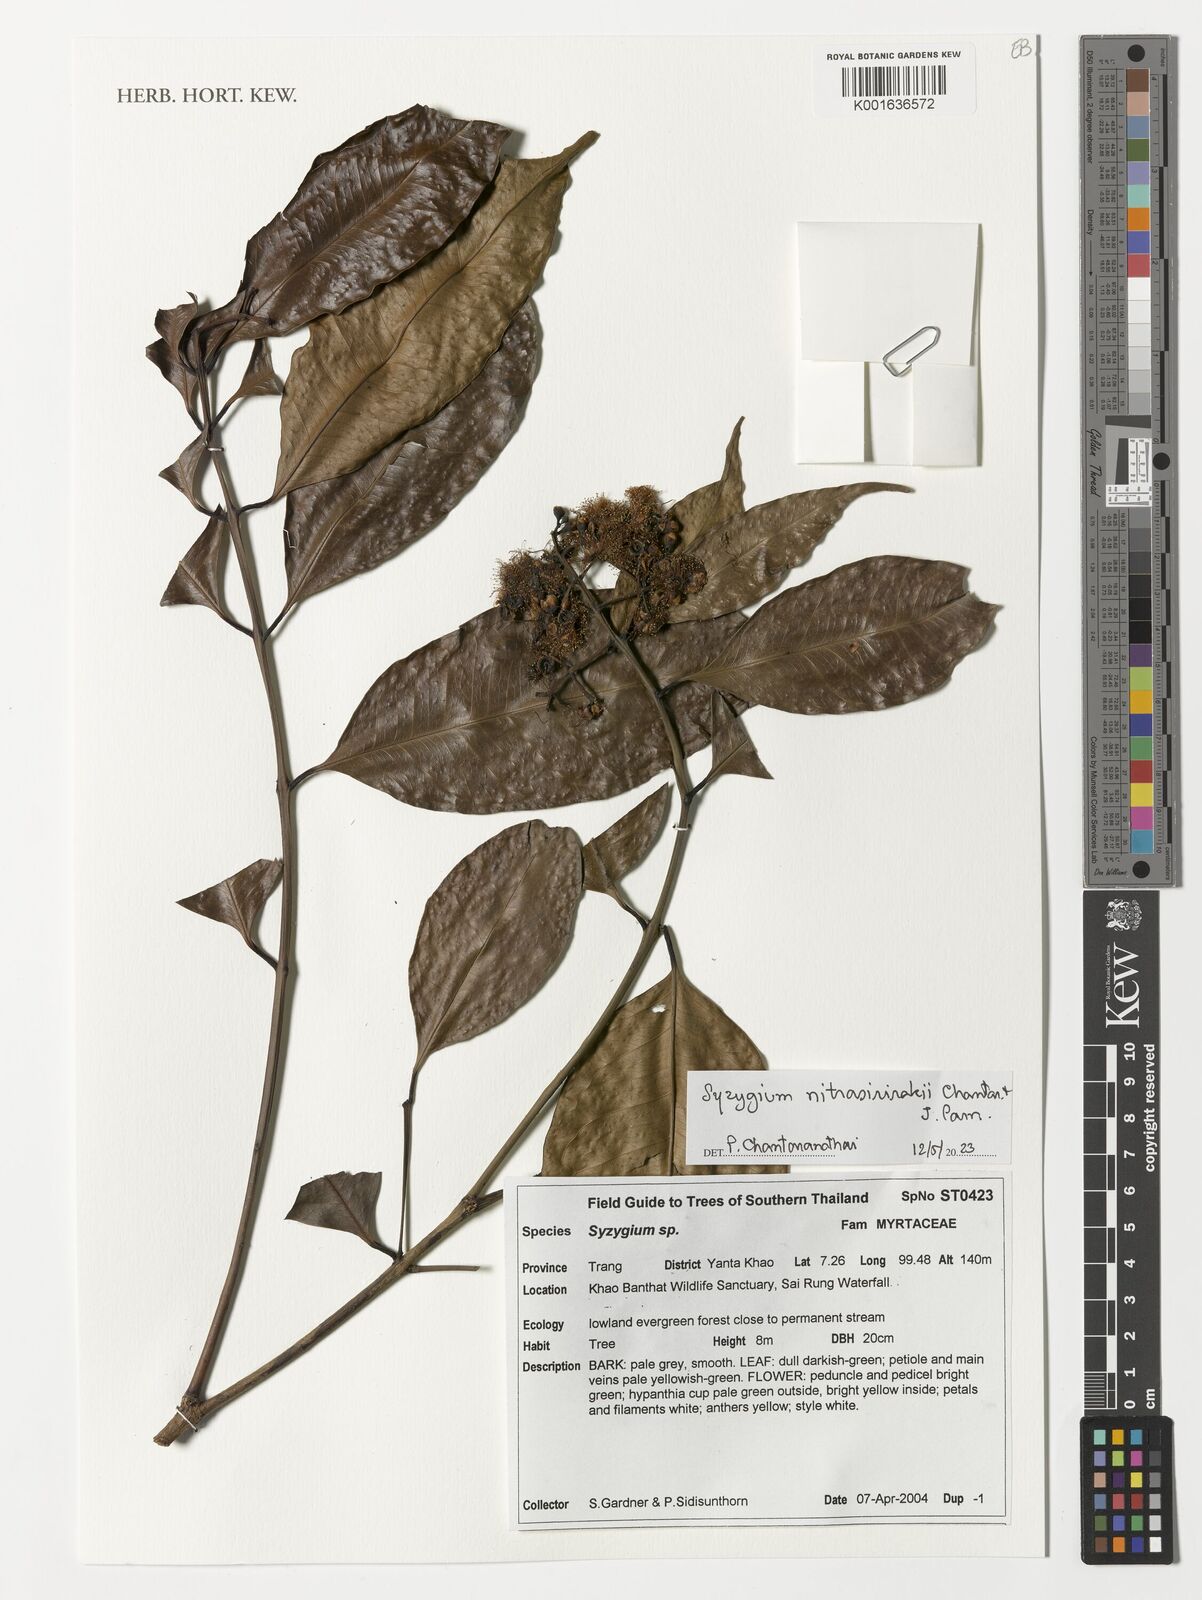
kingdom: Plantae
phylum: Tracheophyta
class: Magnoliopsida
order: Myrtales
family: Myrtaceae
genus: Syzygium
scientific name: Syzygium nitrasirirakii
